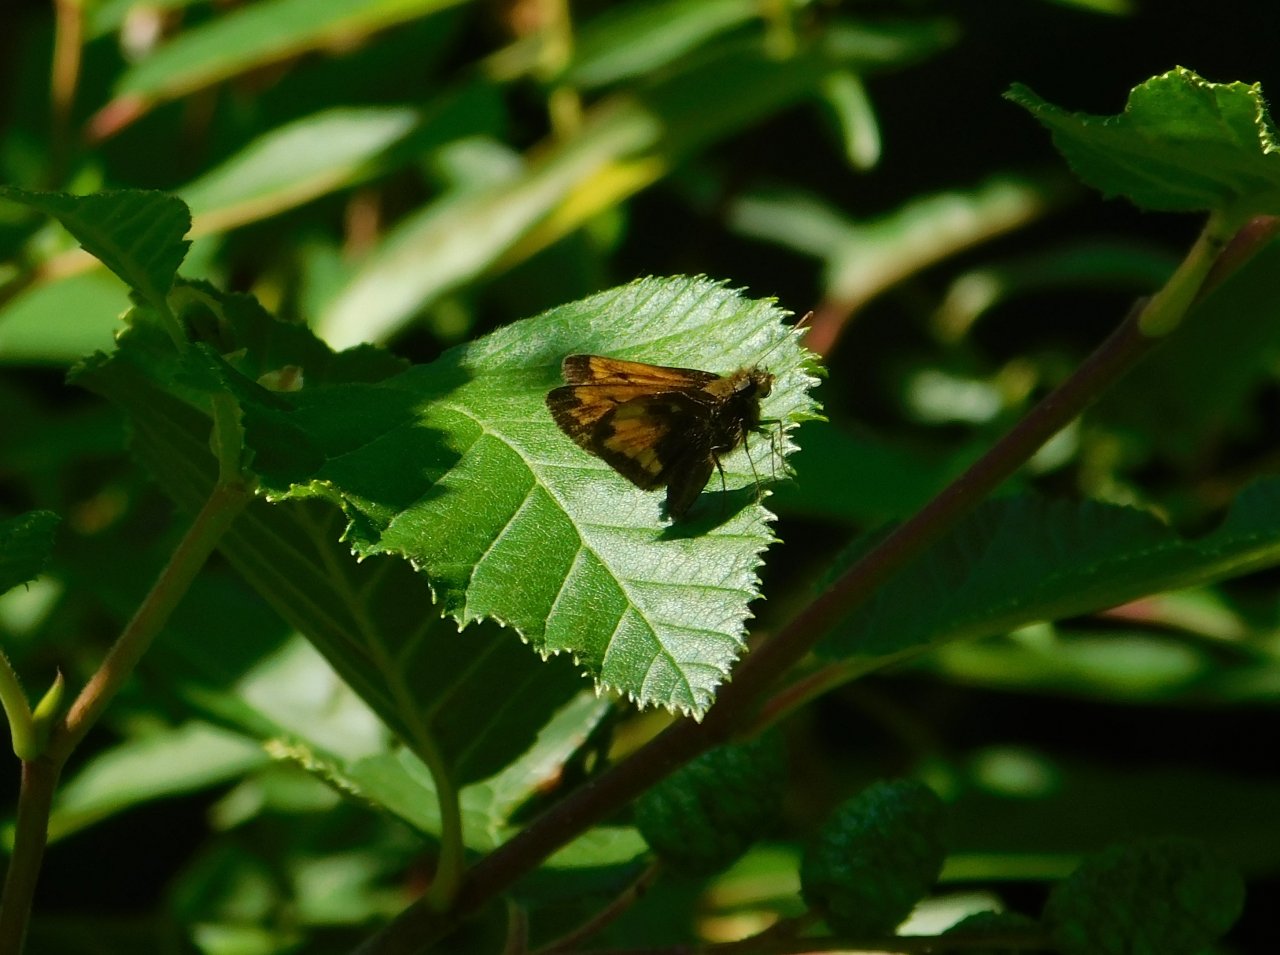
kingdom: Animalia
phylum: Arthropoda
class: Insecta
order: Lepidoptera
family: Hesperiidae
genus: Lon
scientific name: Lon hobomok
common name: Hobomok Skipper
